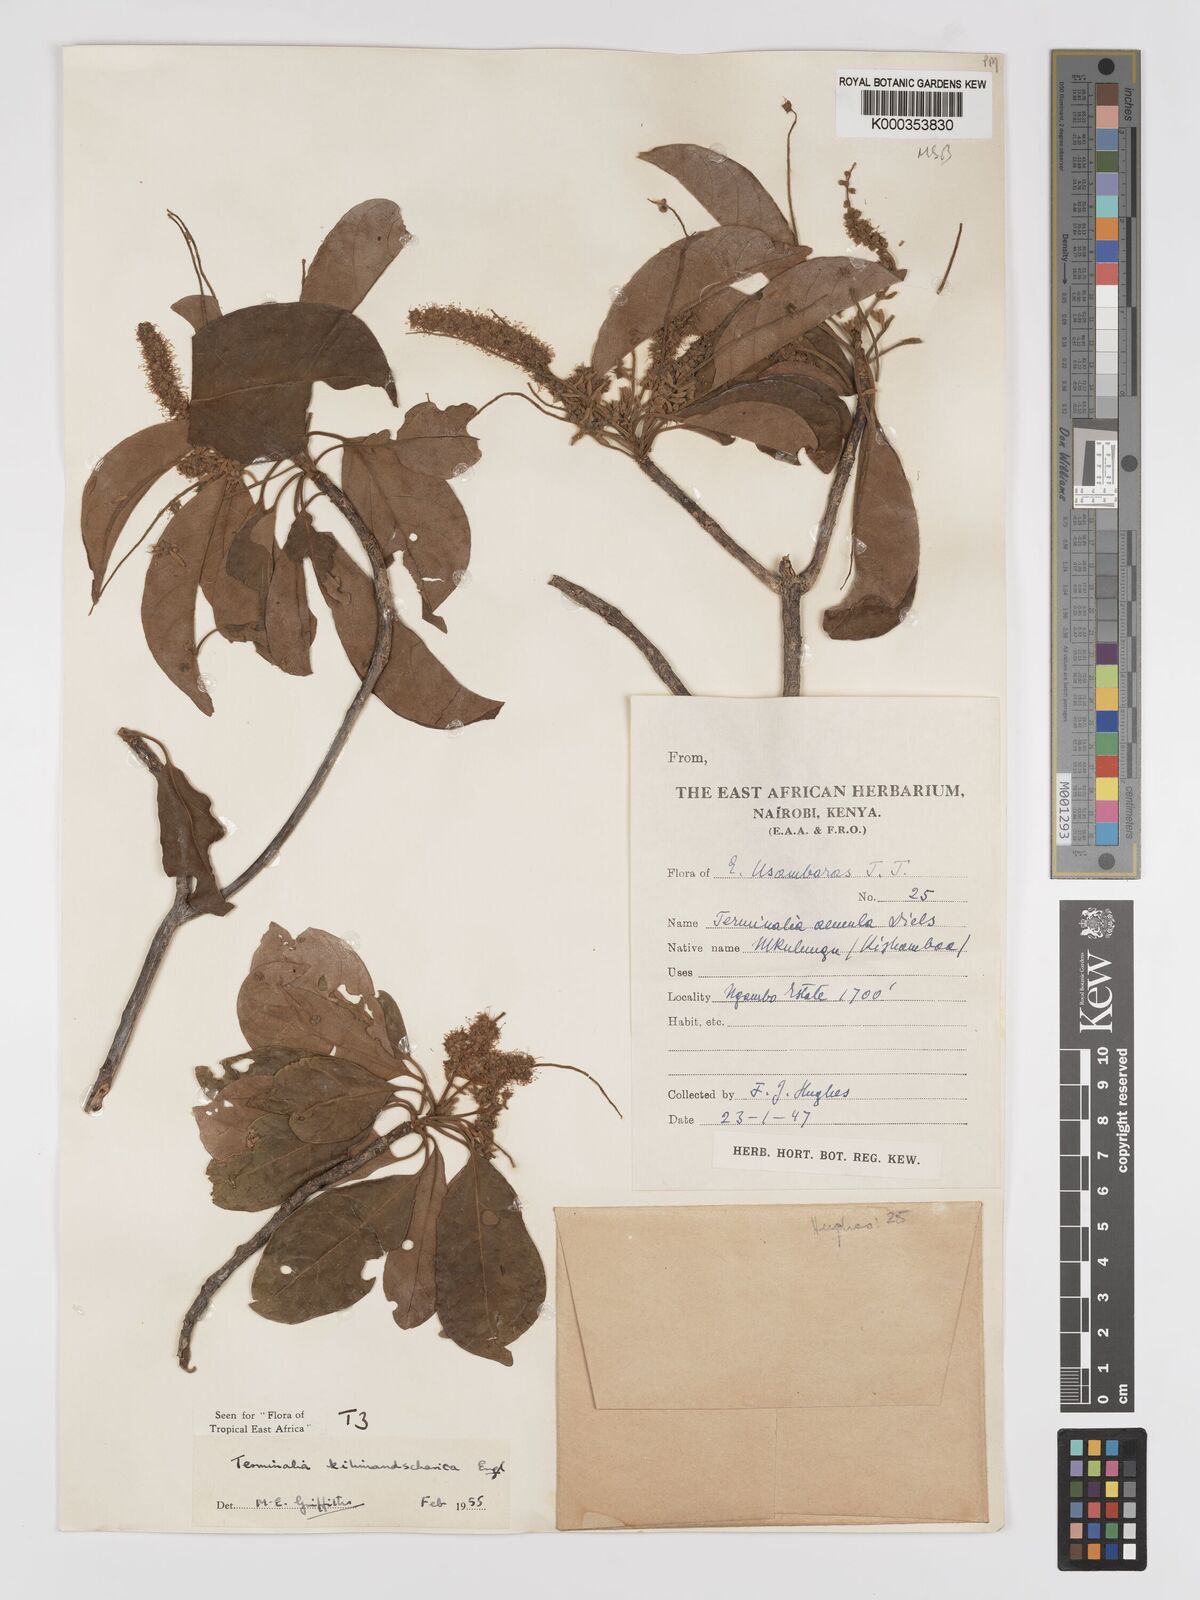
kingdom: Plantae
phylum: Tracheophyta
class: Magnoliopsida
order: Myrtales
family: Combretaceae
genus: Terminalia
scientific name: Terminalia kilimandscharica
